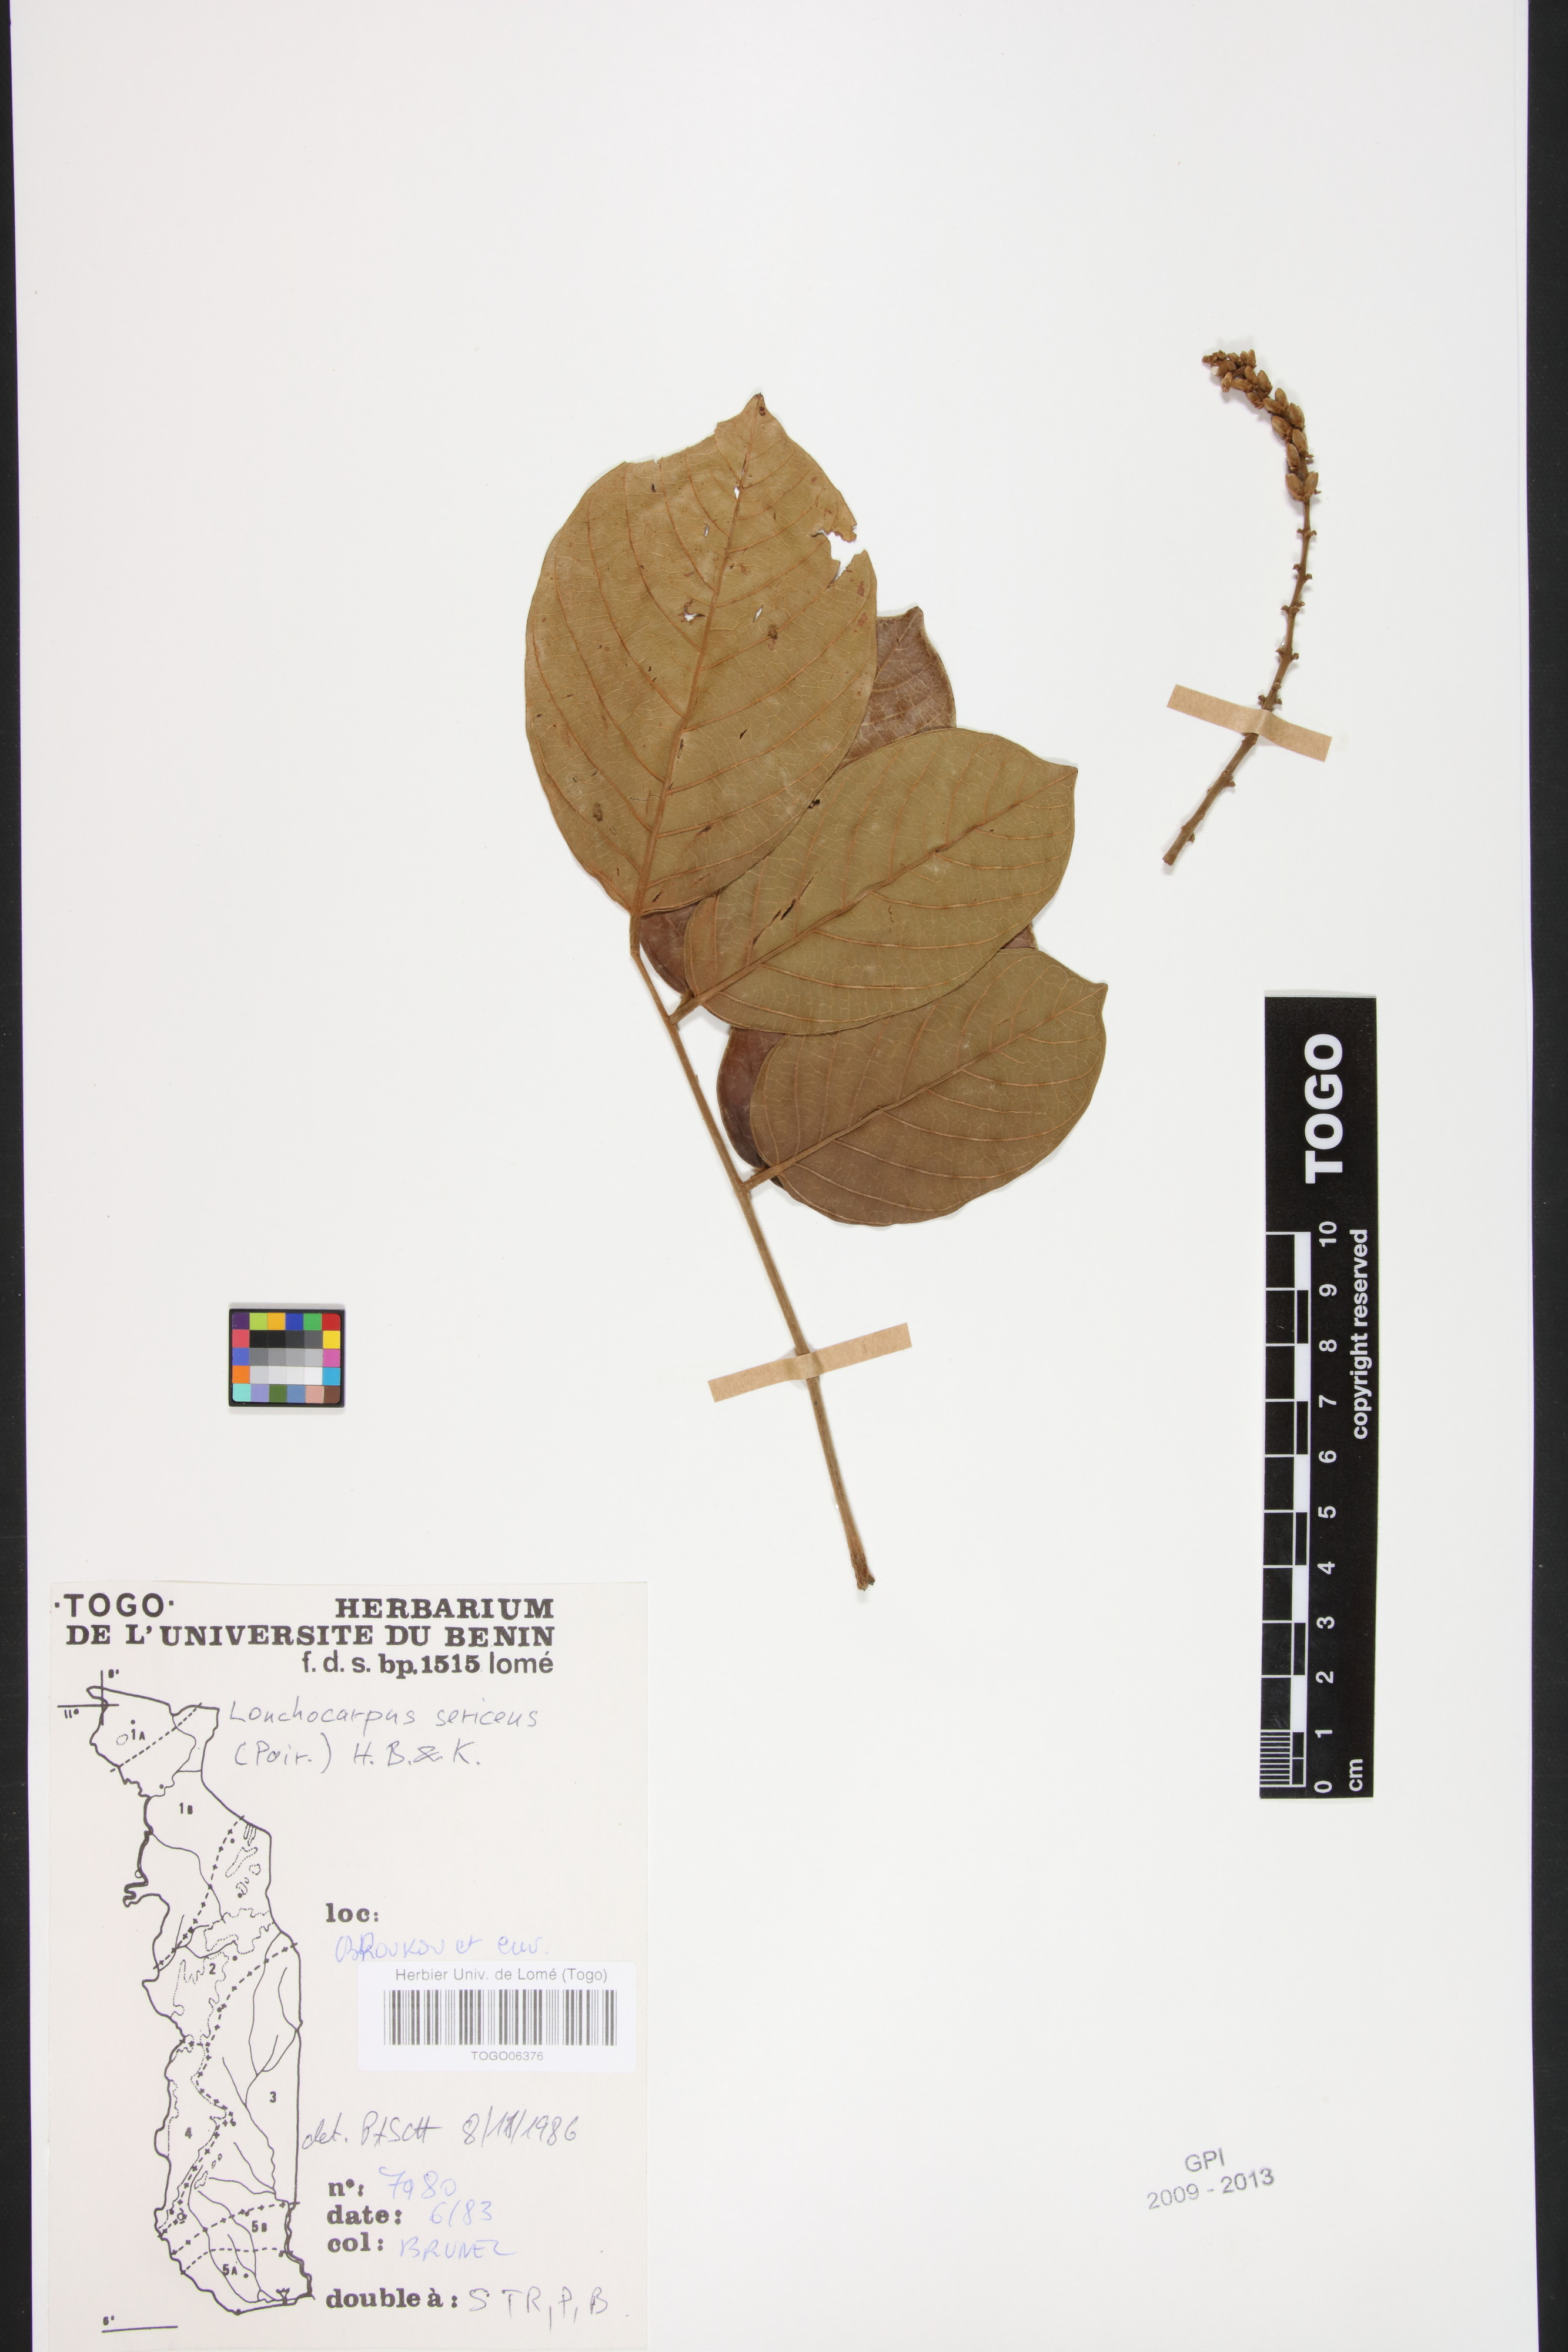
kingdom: Plantae
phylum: Tracheophyta
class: Magnoliopsida
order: Fabales
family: Fabaceae
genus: Lonchocarpus
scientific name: Lonchocarpus sericeus
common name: Savonette
